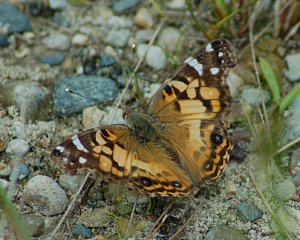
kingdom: Animalia
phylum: Arthropoda
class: Insecta
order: Lepidoptera
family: Nymphalidae
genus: Vanessa
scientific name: Vanessa virginiensis
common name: American Lady
